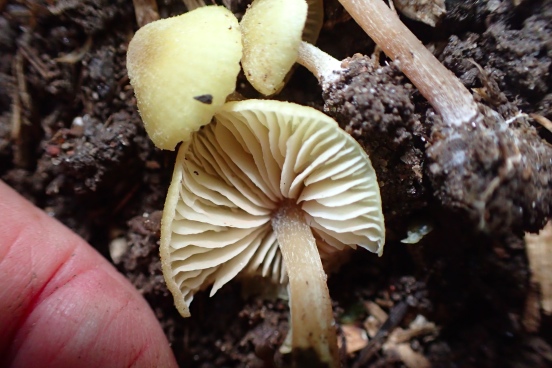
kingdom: Fungi
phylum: Basidiomycota
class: Agaricomycetes
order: Agaricales
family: Entolomataceae
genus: Entoloma
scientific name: Entoloma pleopodium
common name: duftende rødblad
